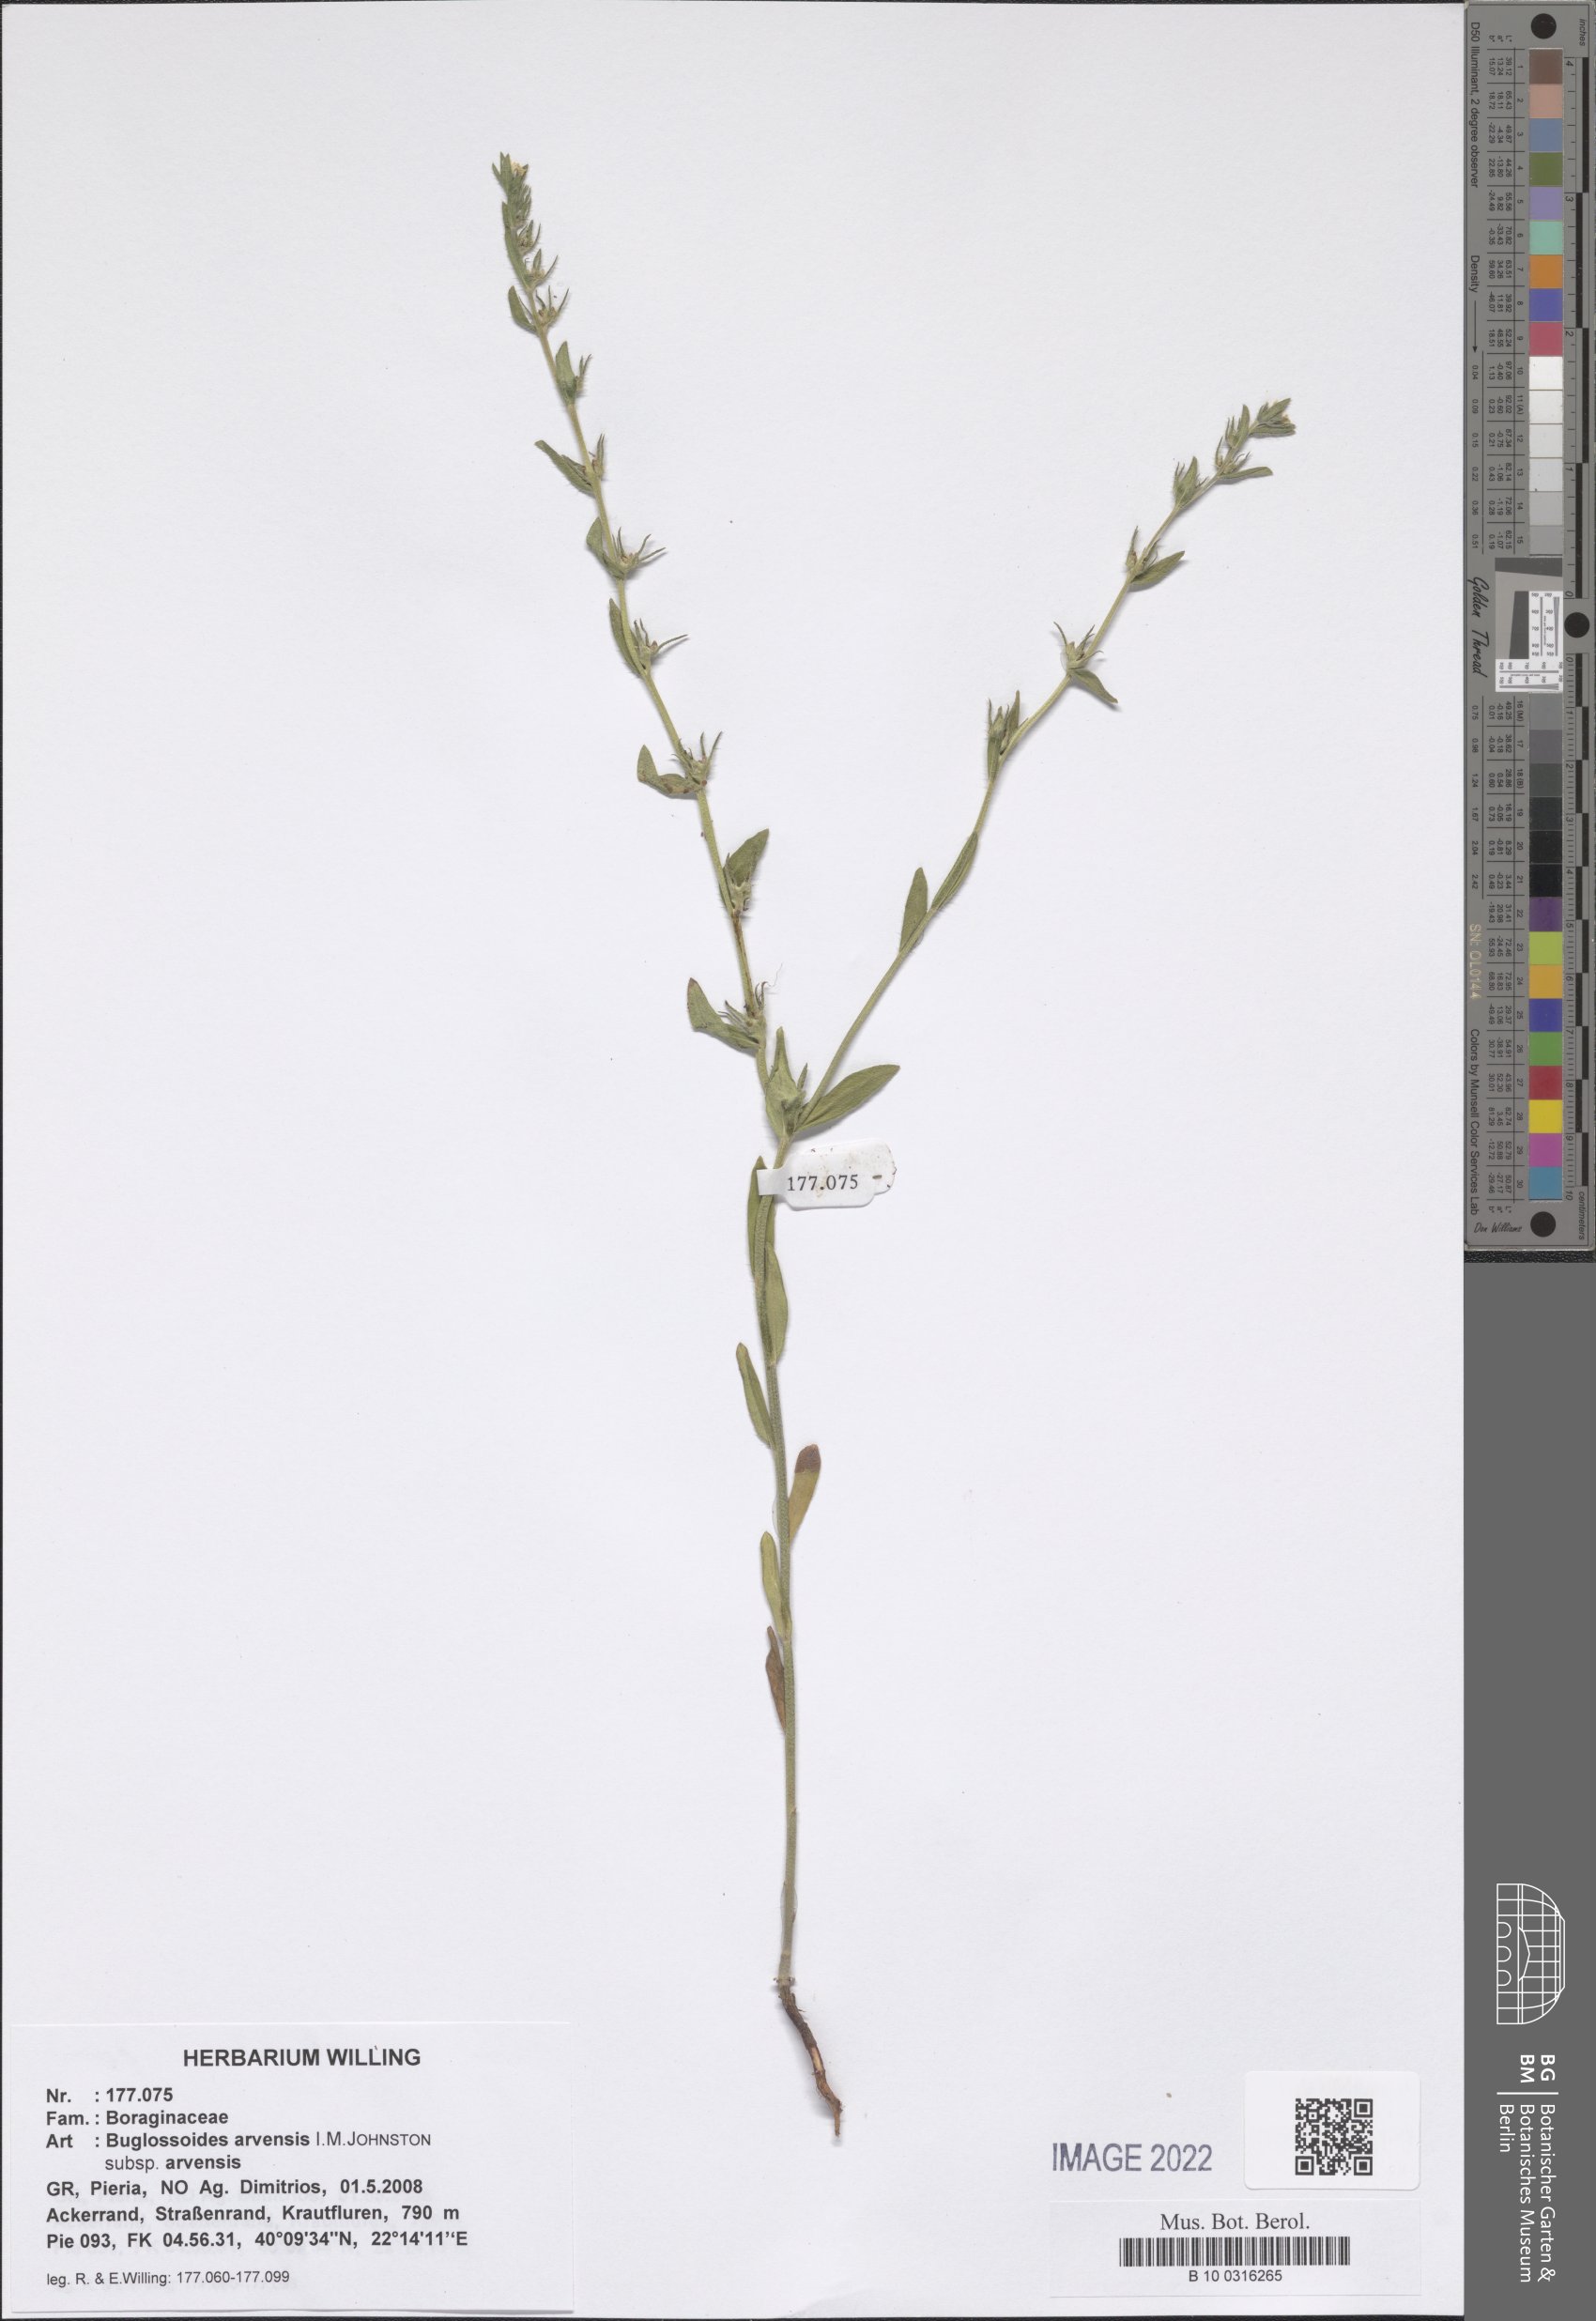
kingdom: Plantae
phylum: Tracheophyta
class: Magnoliopsida
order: Boraginales
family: Boraginaceae
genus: Buglossoides
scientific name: Buglossoides arvensis
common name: Corn gromwell
